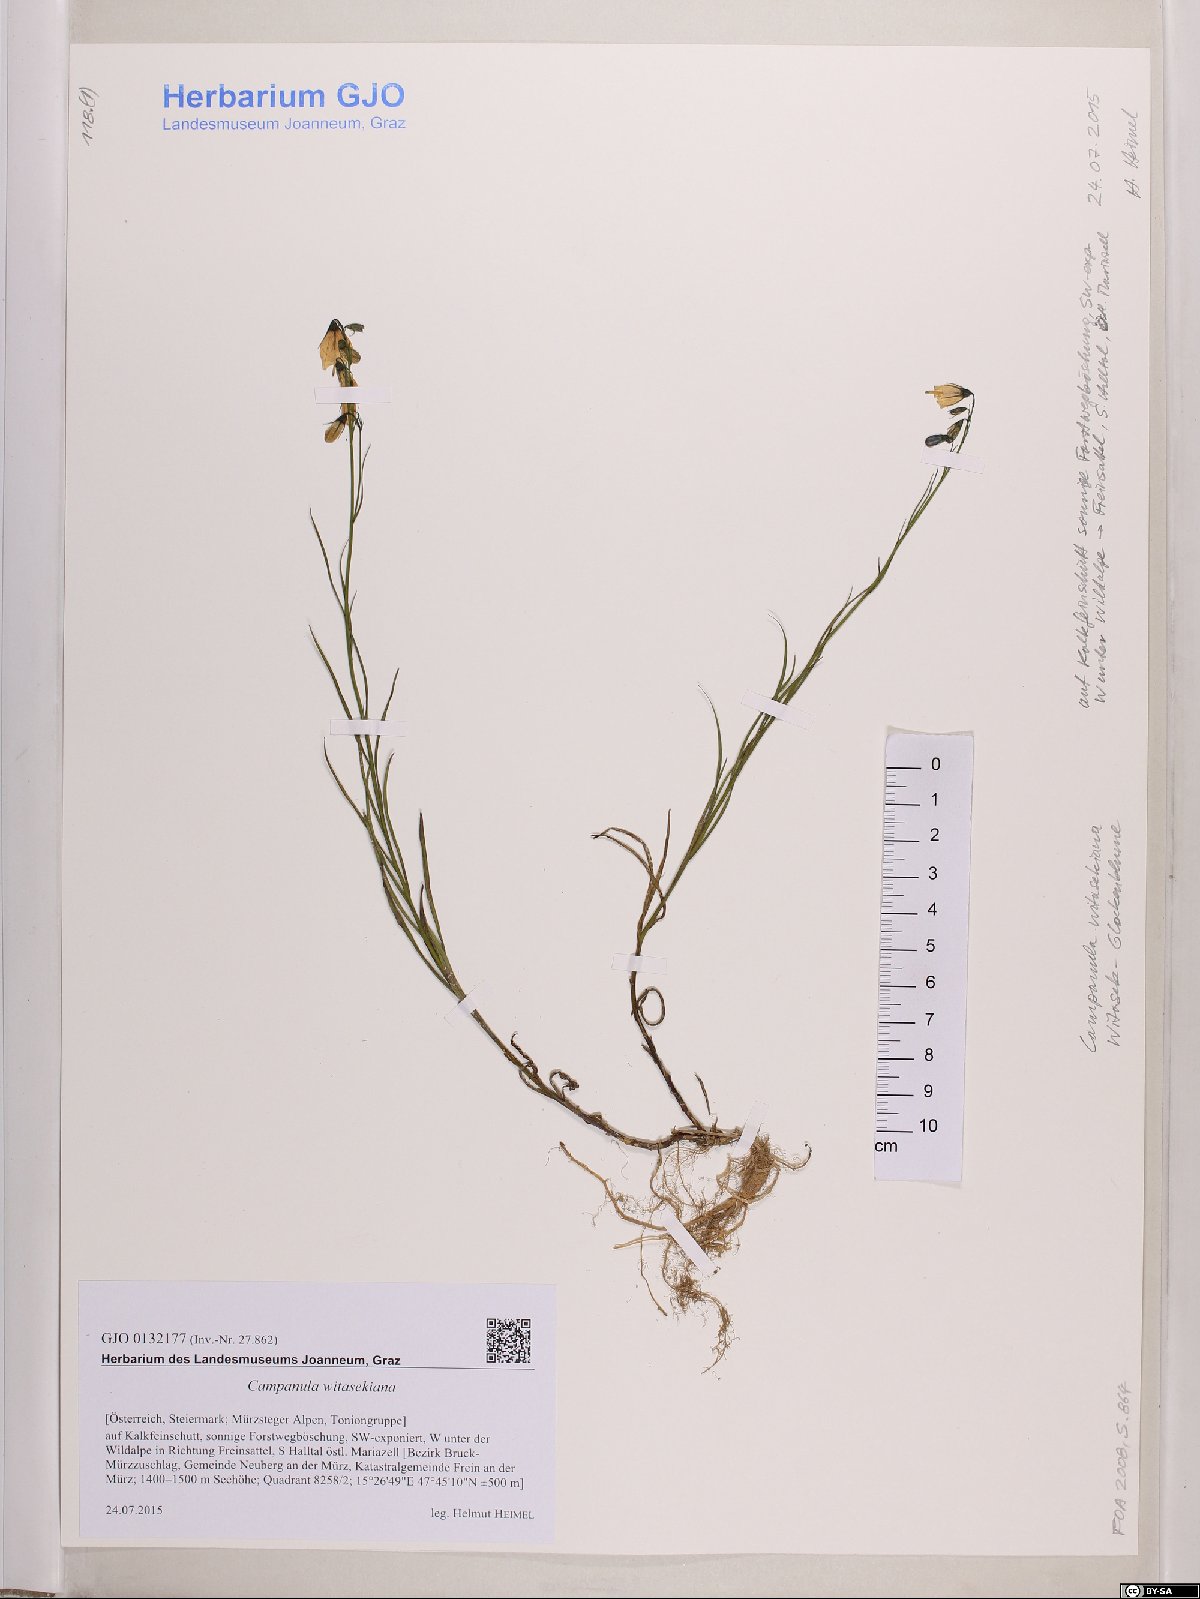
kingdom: Plantae
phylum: Tracheophyta
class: Magnoliopsida
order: Asterales
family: Campanulaceae
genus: Campanula
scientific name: Campanula witasekiana
